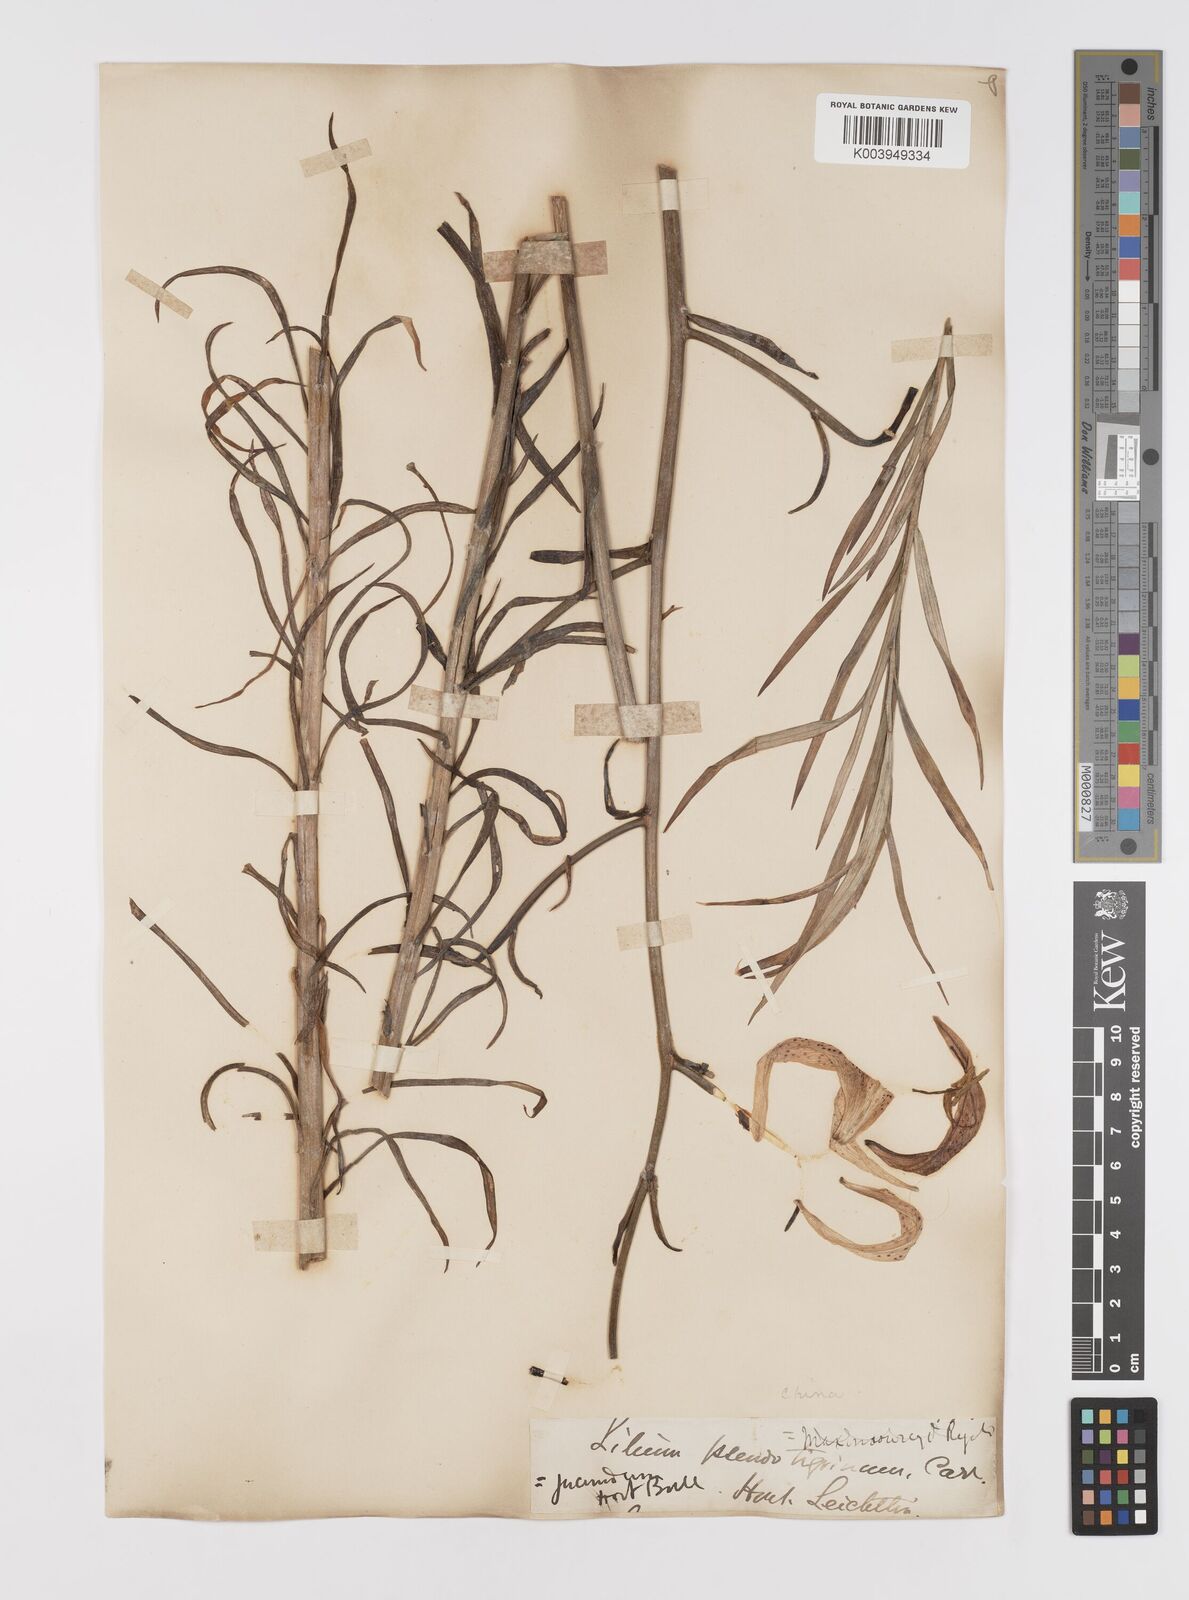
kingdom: Plantae
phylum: Tracheophyta
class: Liliopsida
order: Liliales
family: Liliaceae
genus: Lilium
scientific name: Lilium leichtlinii
